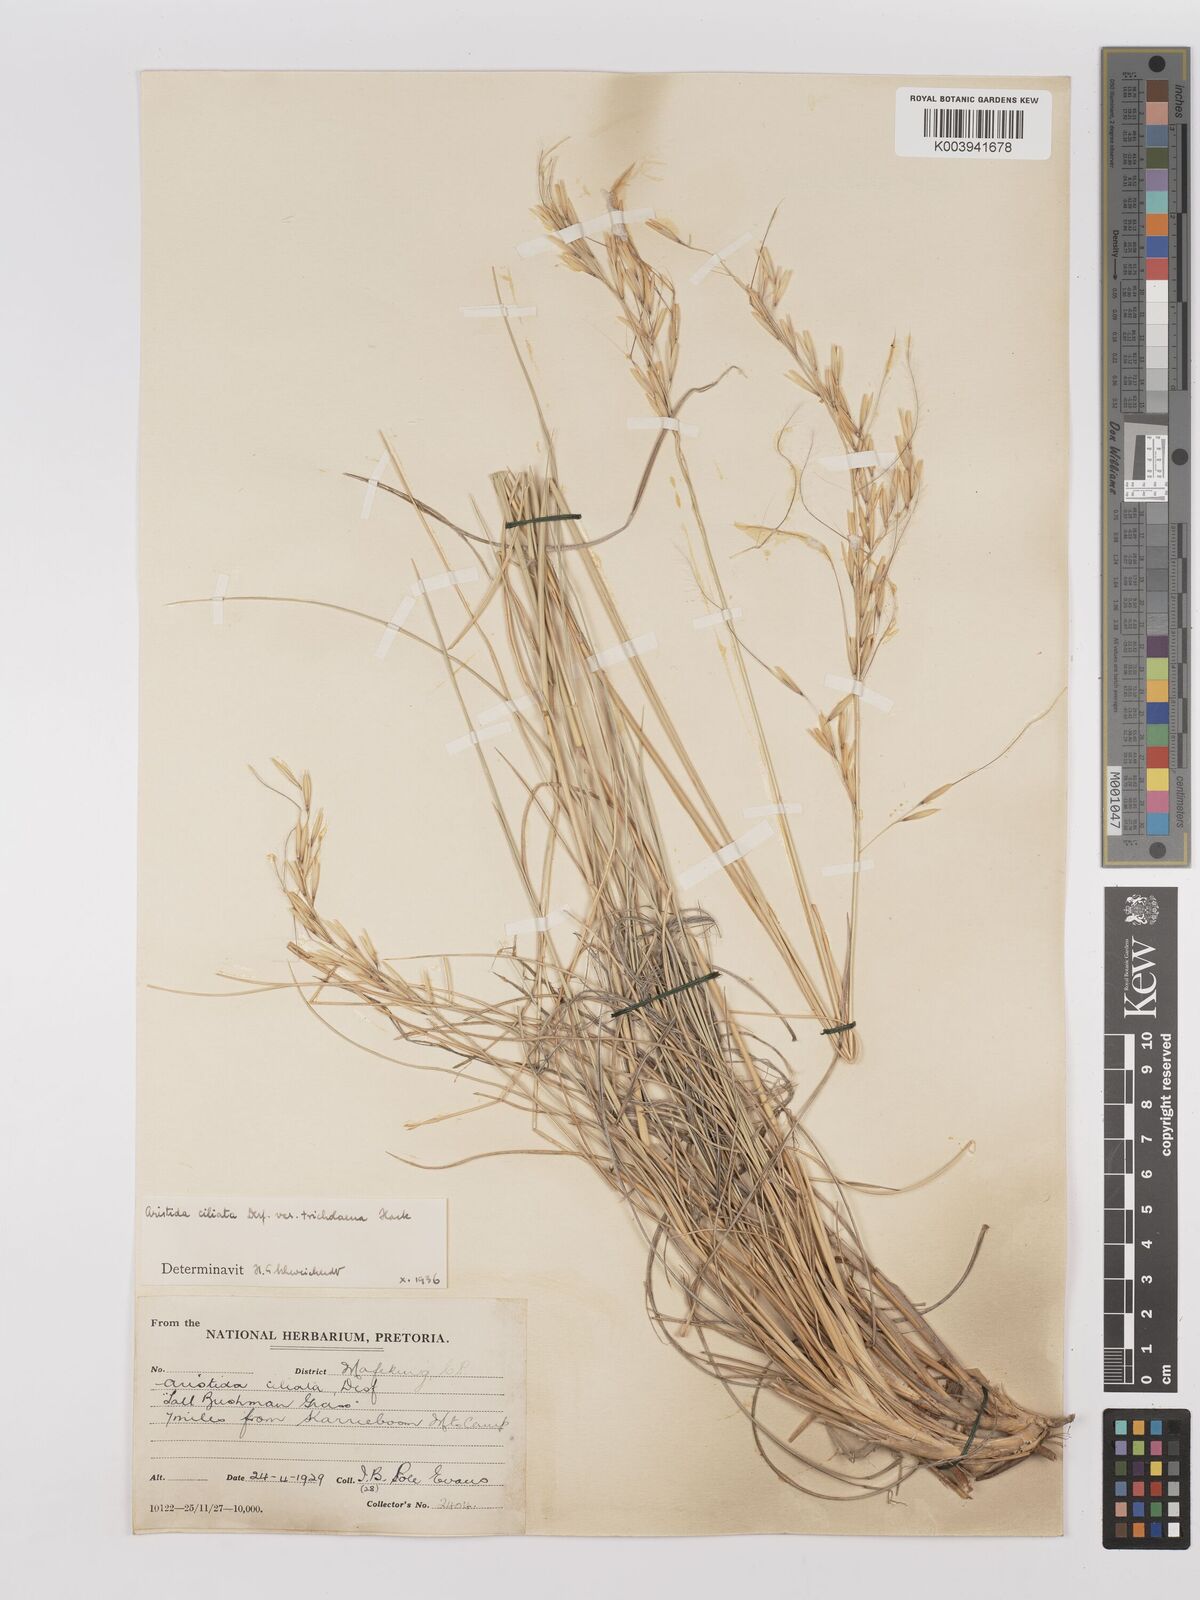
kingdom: Plantae
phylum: Tracheophyta
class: Liliopsida
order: Poales
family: Poaceae
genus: Stipagrostis
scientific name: Stipagrostis ciliata
